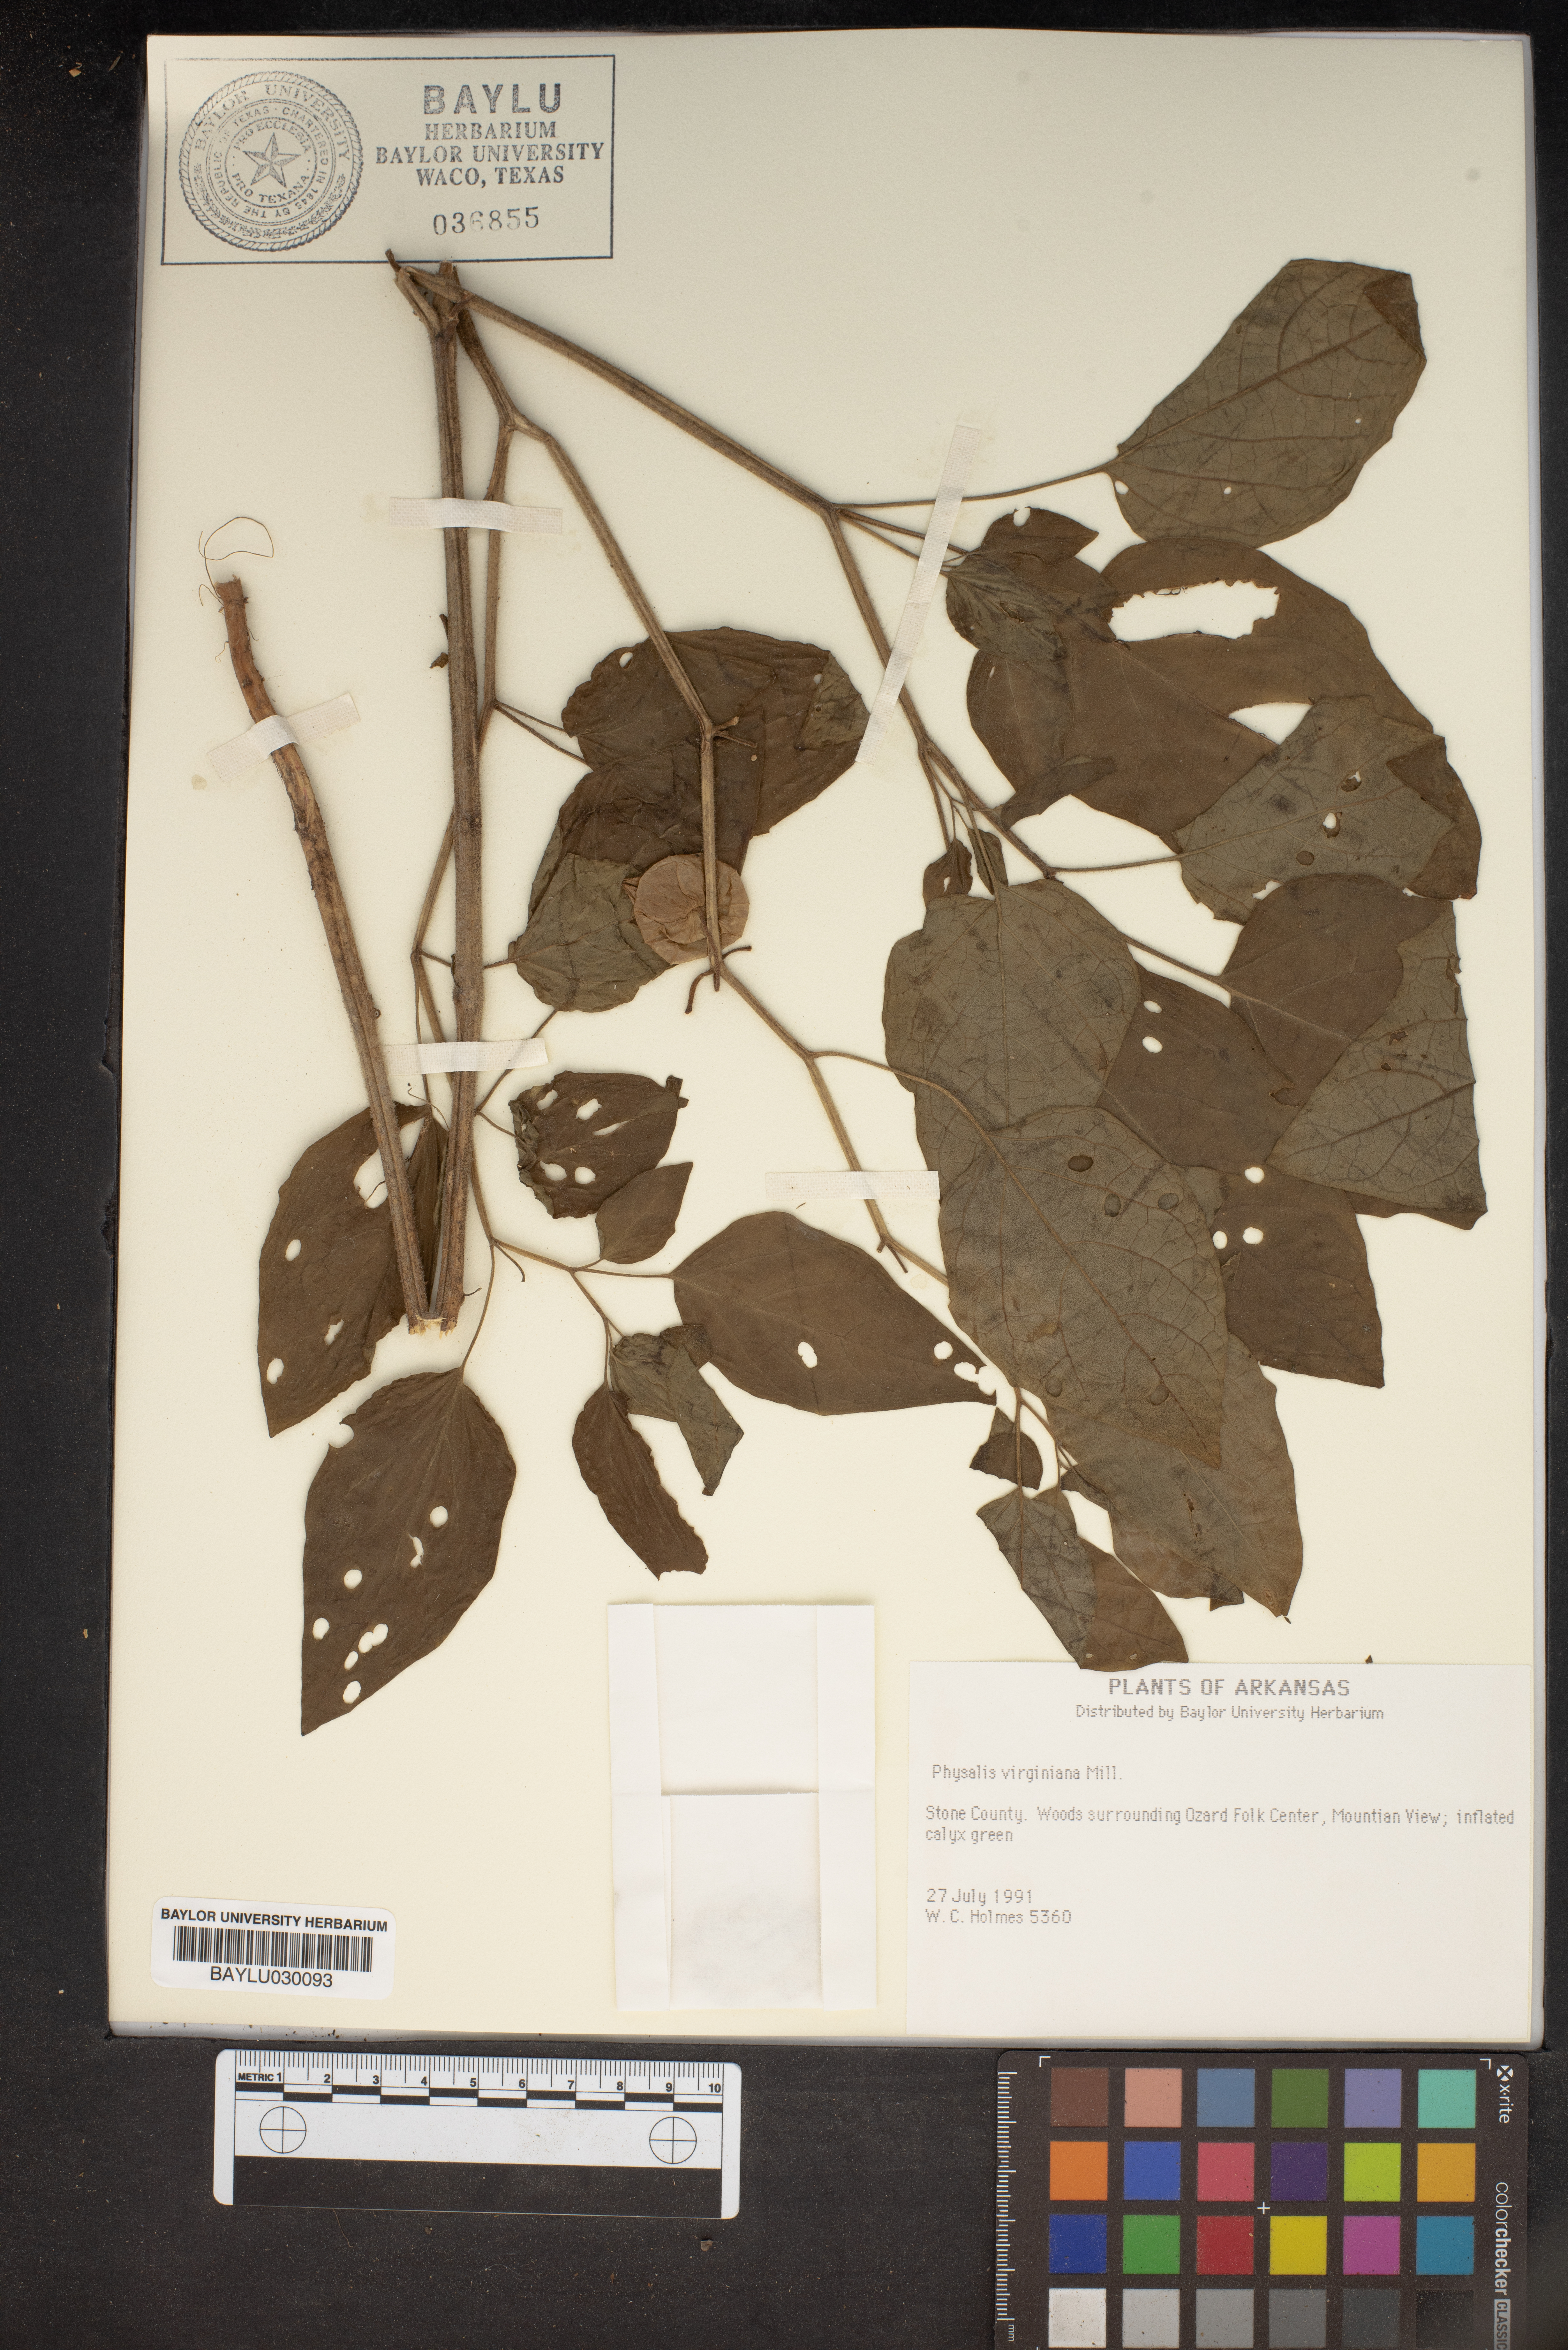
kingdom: Plantae
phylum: Tracheophyta
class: Magnoliopsida
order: Solanales
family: Solanaceae
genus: Physalis
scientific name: Physalis virginiana
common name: Virginia ground-cherry
